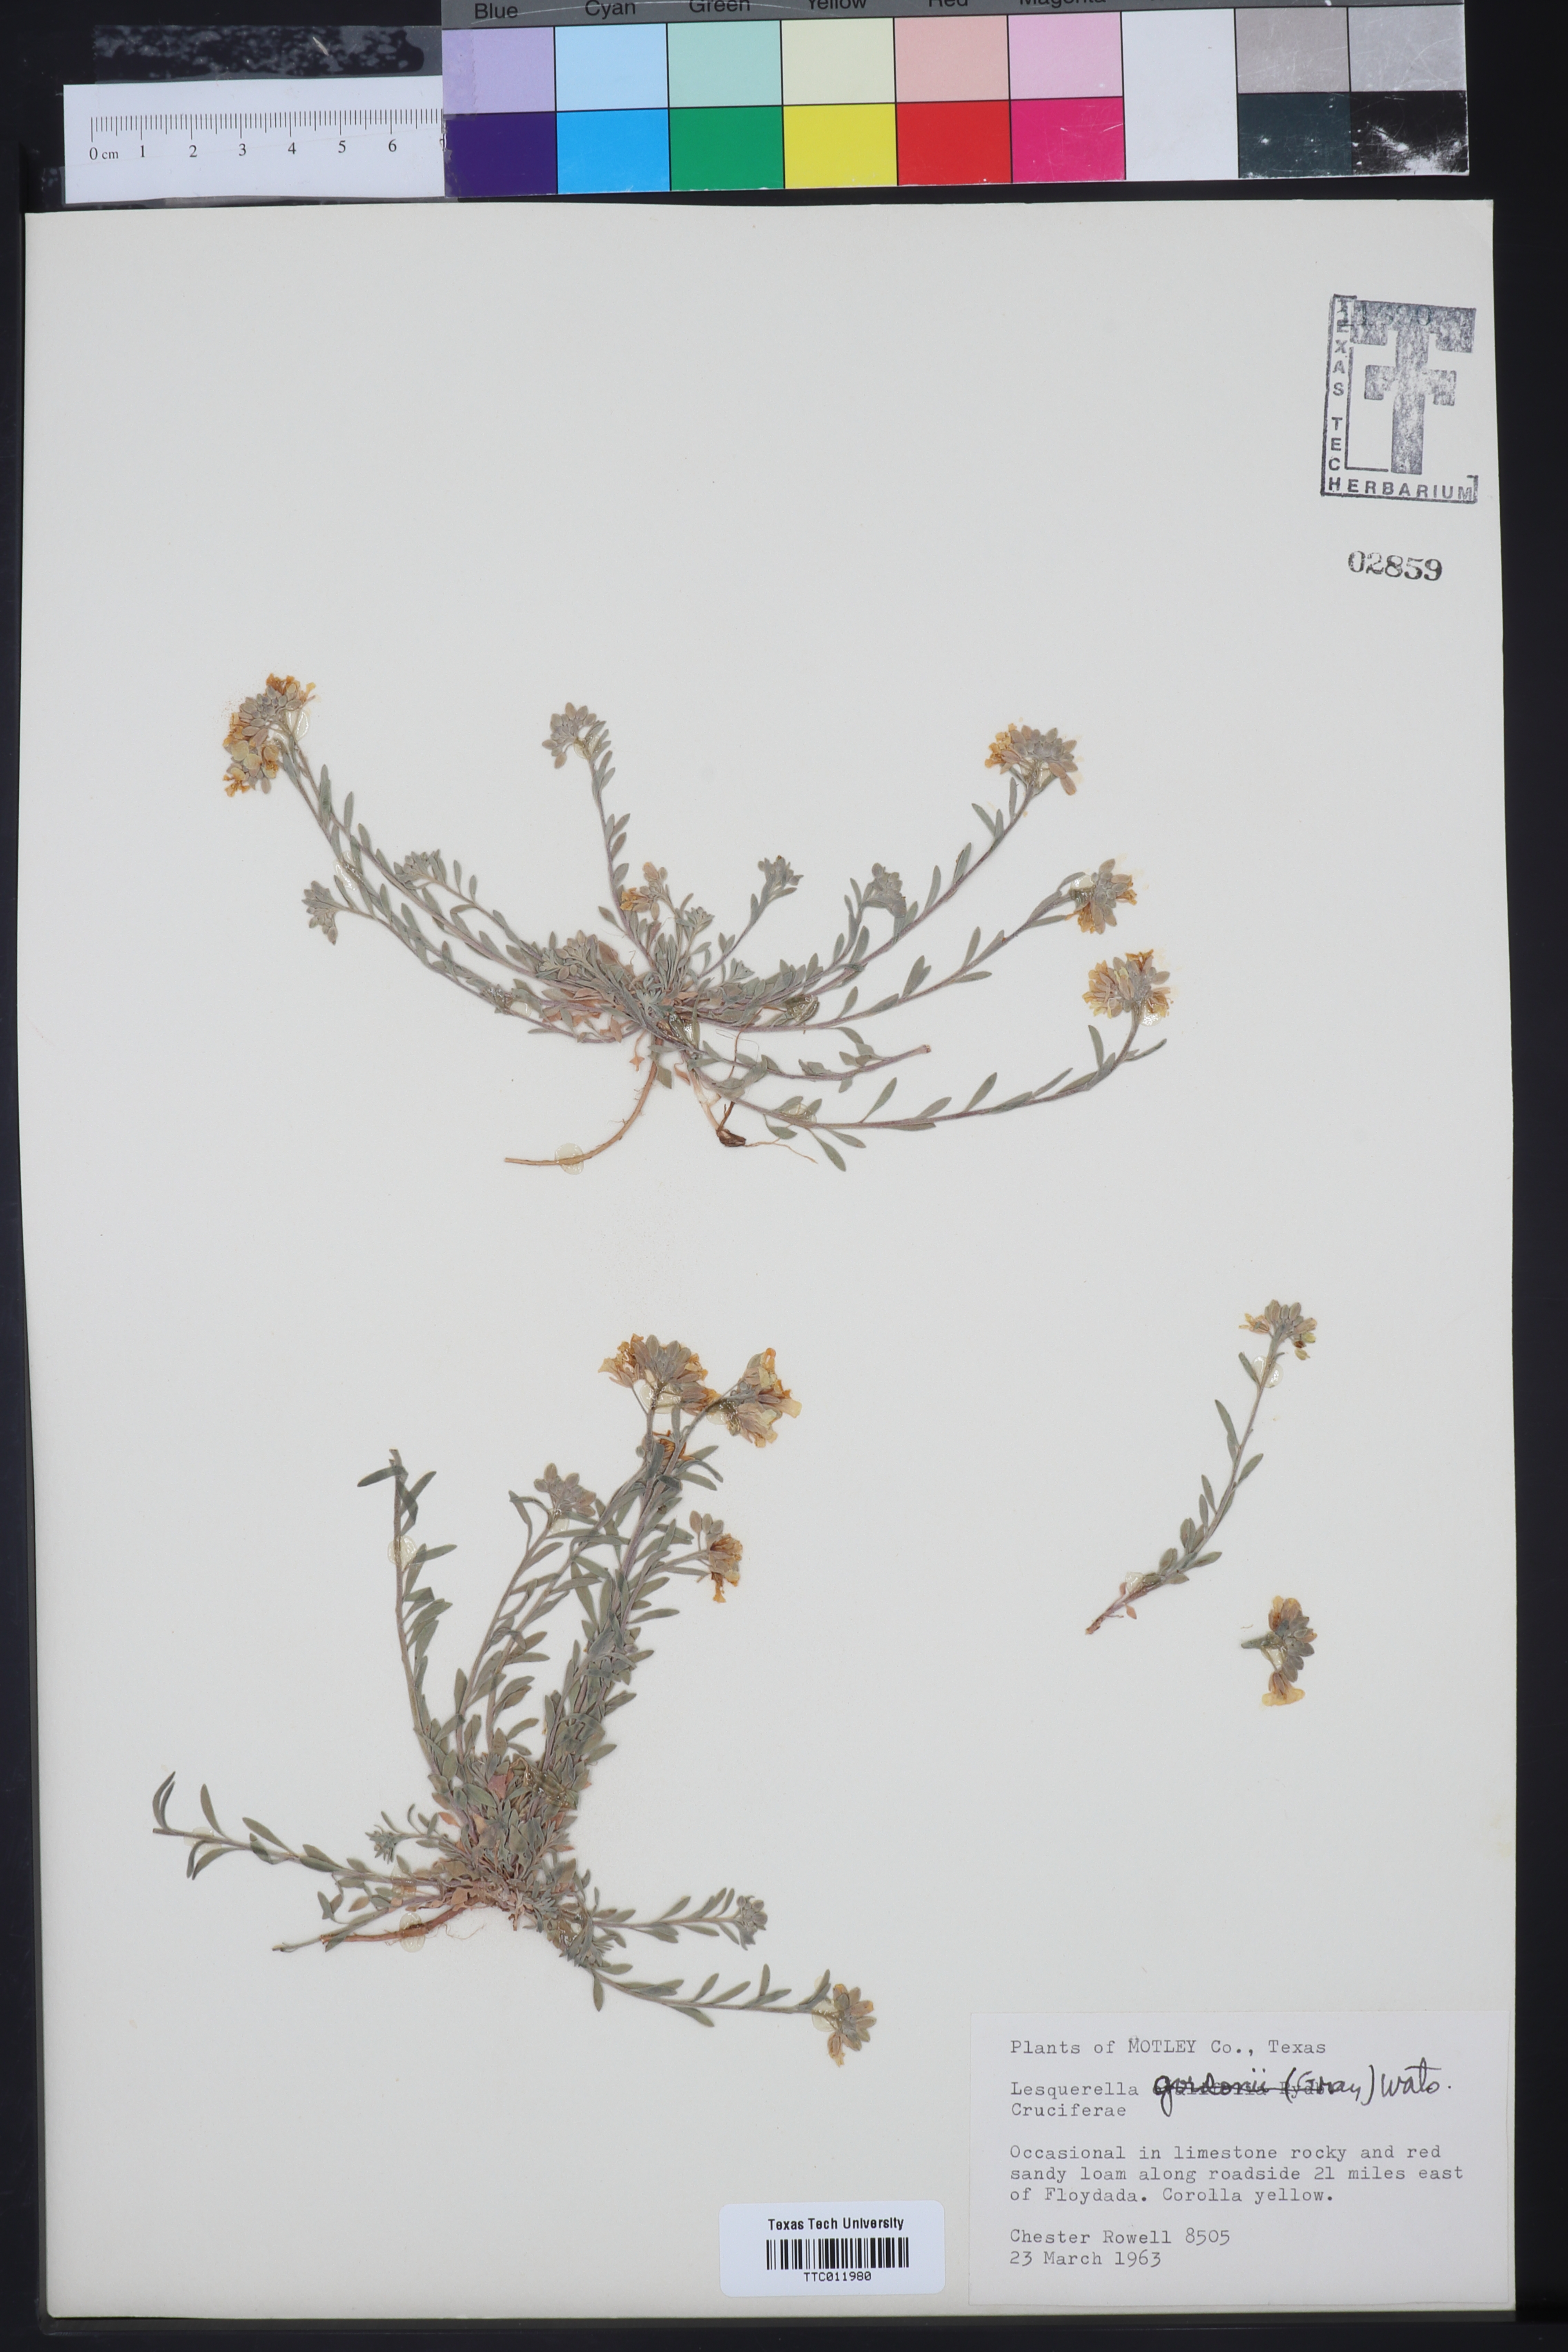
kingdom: Plantae
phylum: Tracheophyta
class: Magnoliopsida
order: Brassicales
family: Brassicaceae
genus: Physaria
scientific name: Physaria gordonii
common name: Gordon's bladderpod
